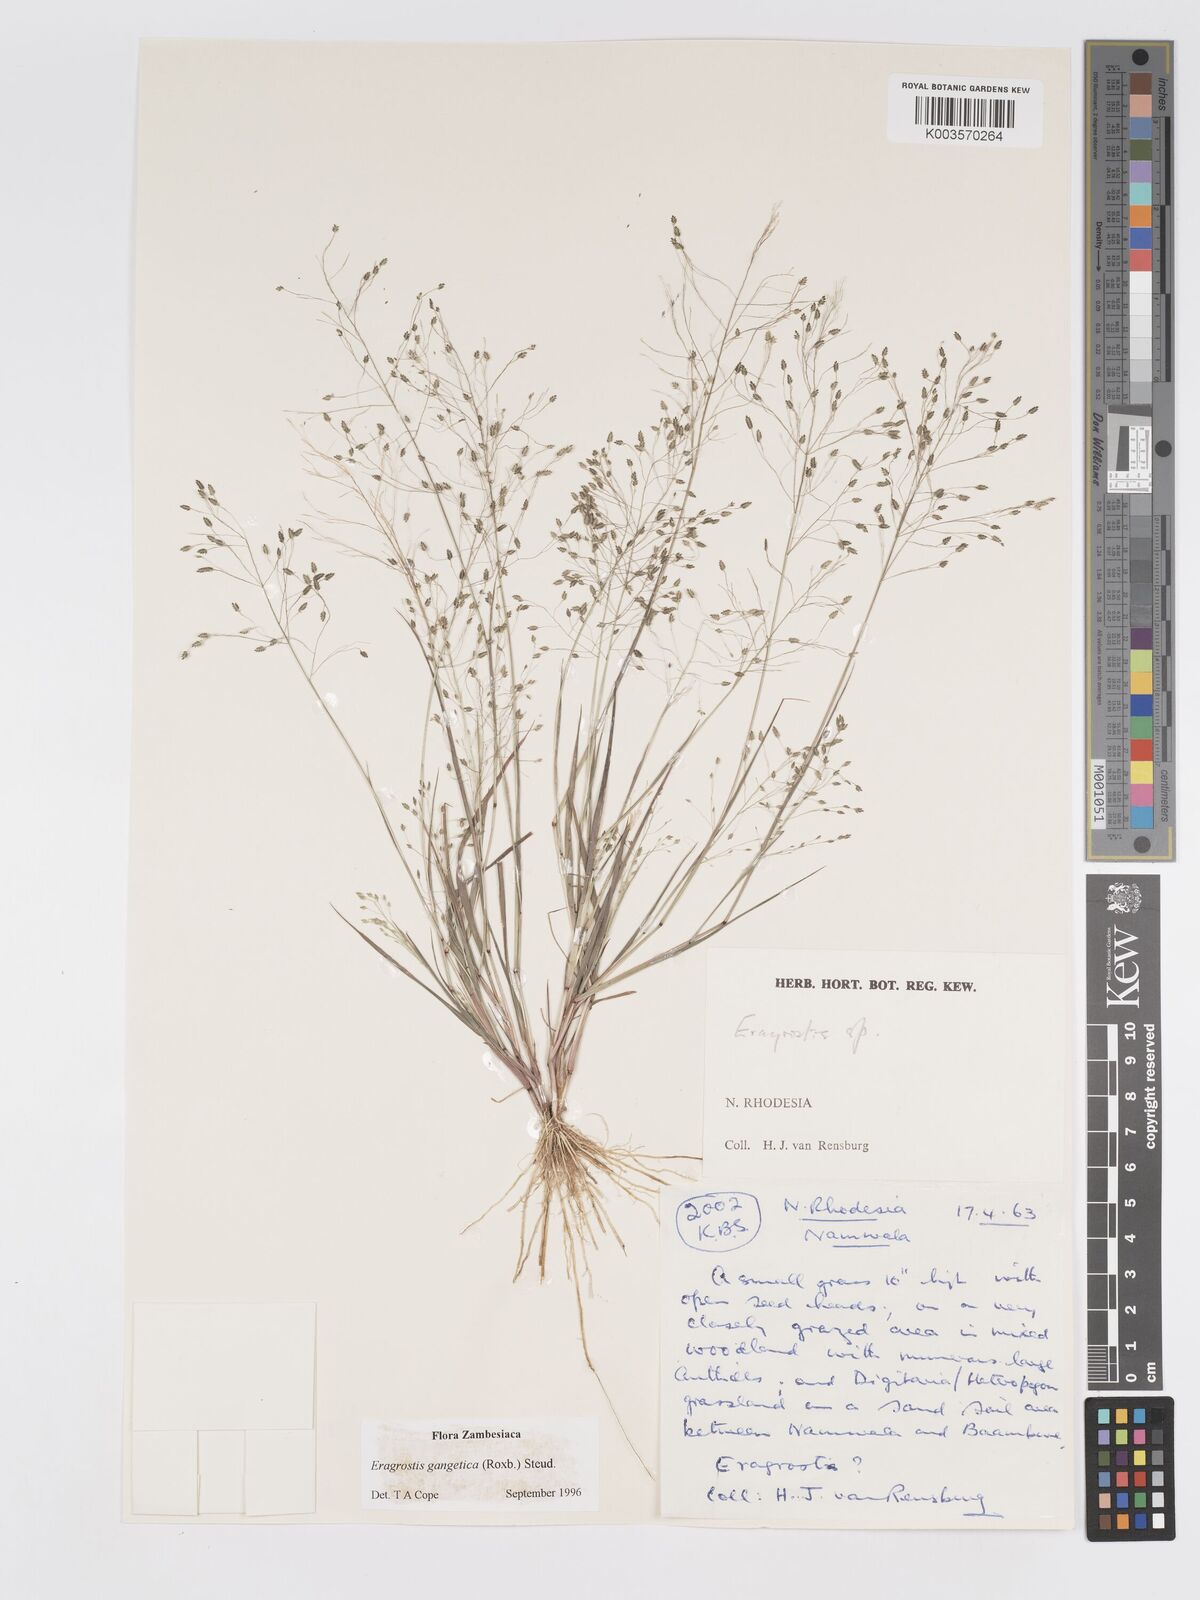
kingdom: Plantae
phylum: Tracheophyta
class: Liliopsida
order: Poales
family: Poaceae
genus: Eragrostis
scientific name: Eragrostis gangetica
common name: Slimflower lovegrass
